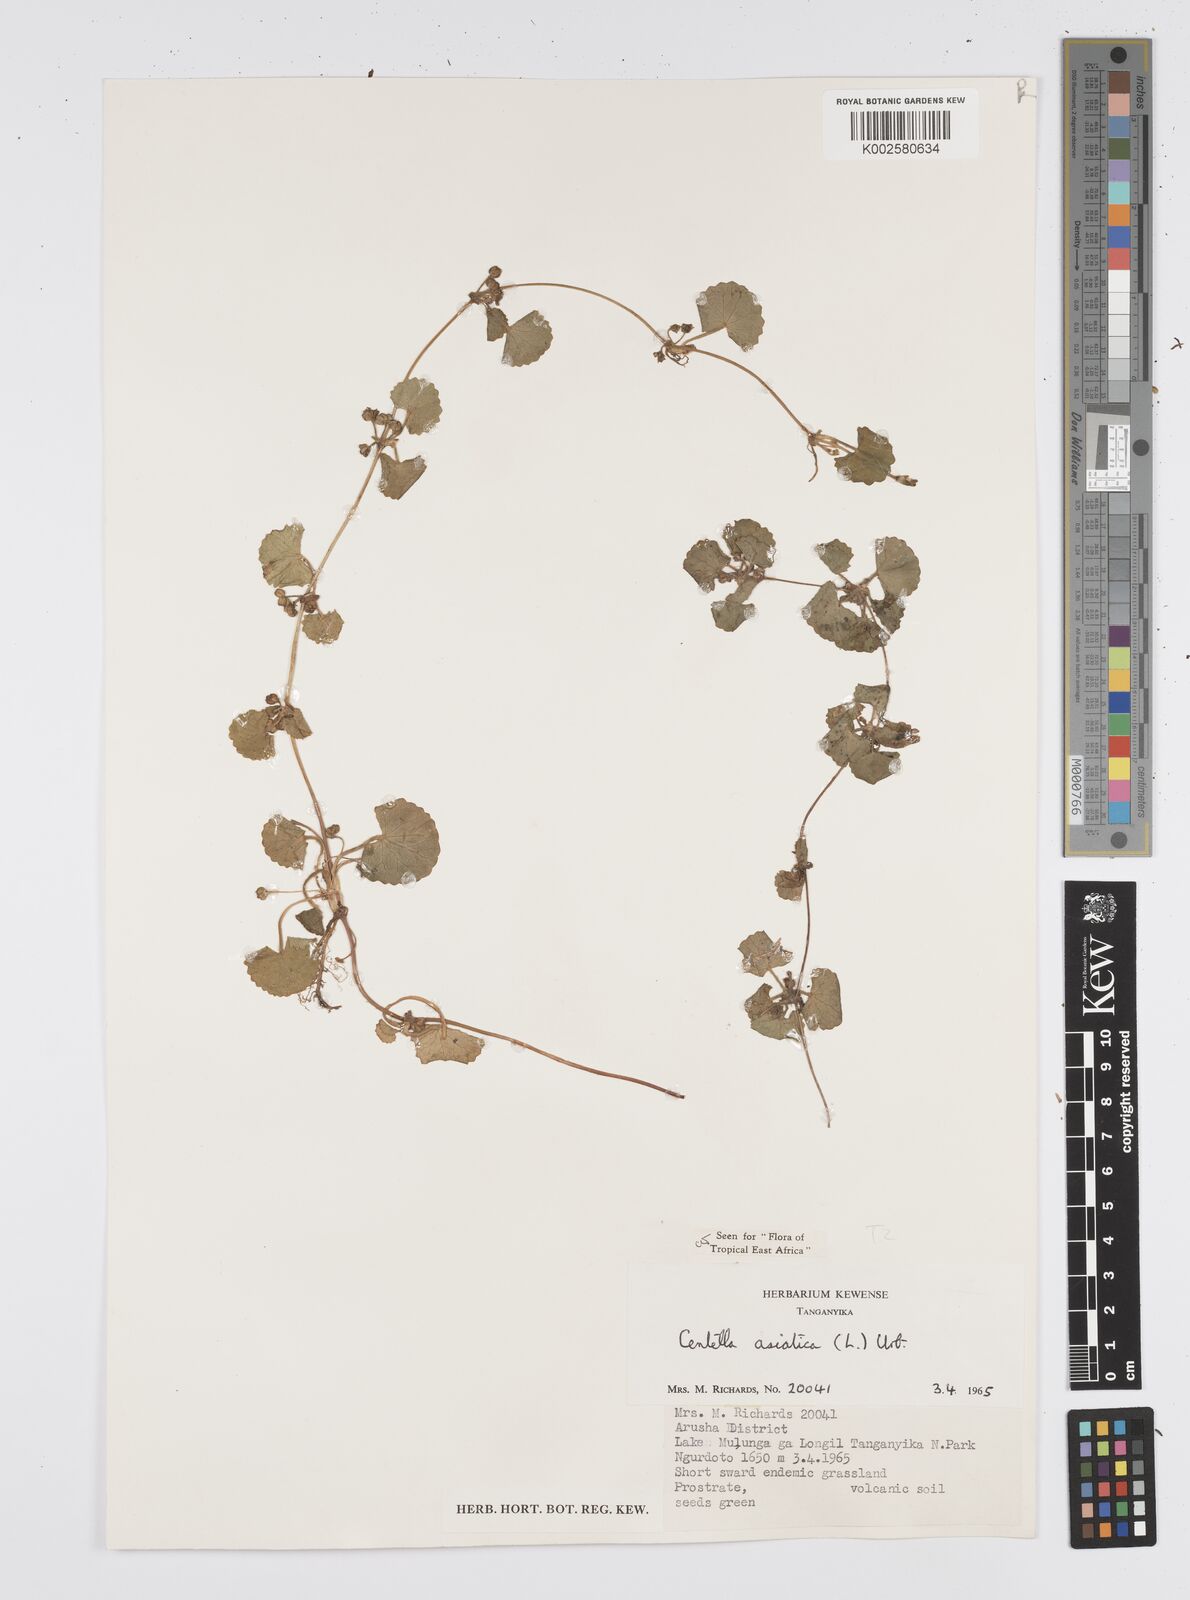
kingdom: Plantae
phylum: Tracheophyta
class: Magnoliopsida
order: Apiales
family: Apiaceae
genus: Centella
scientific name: Centella asiatica
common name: Spadeleaf
